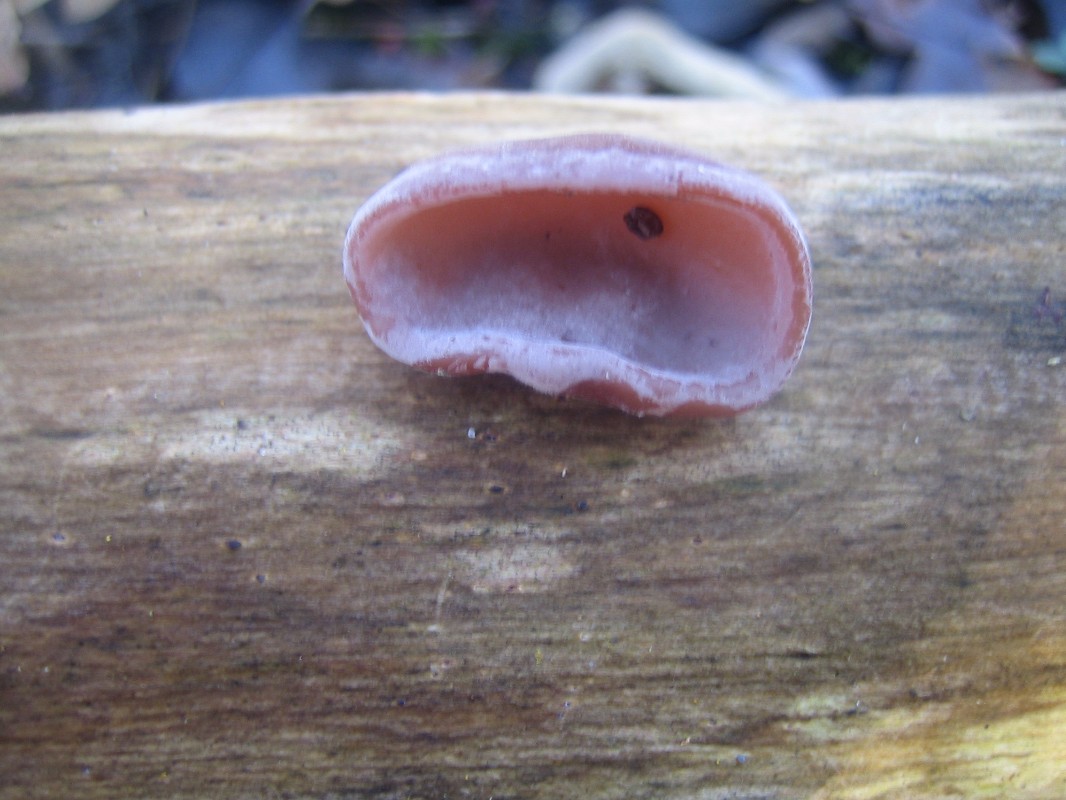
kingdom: Fungi
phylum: Basidiomycota
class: Agaricomycetes
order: Auriculariales
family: Auriculariaceae
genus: Auricularia
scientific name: Auricularia auricula-judae
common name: almindelig judasøre
